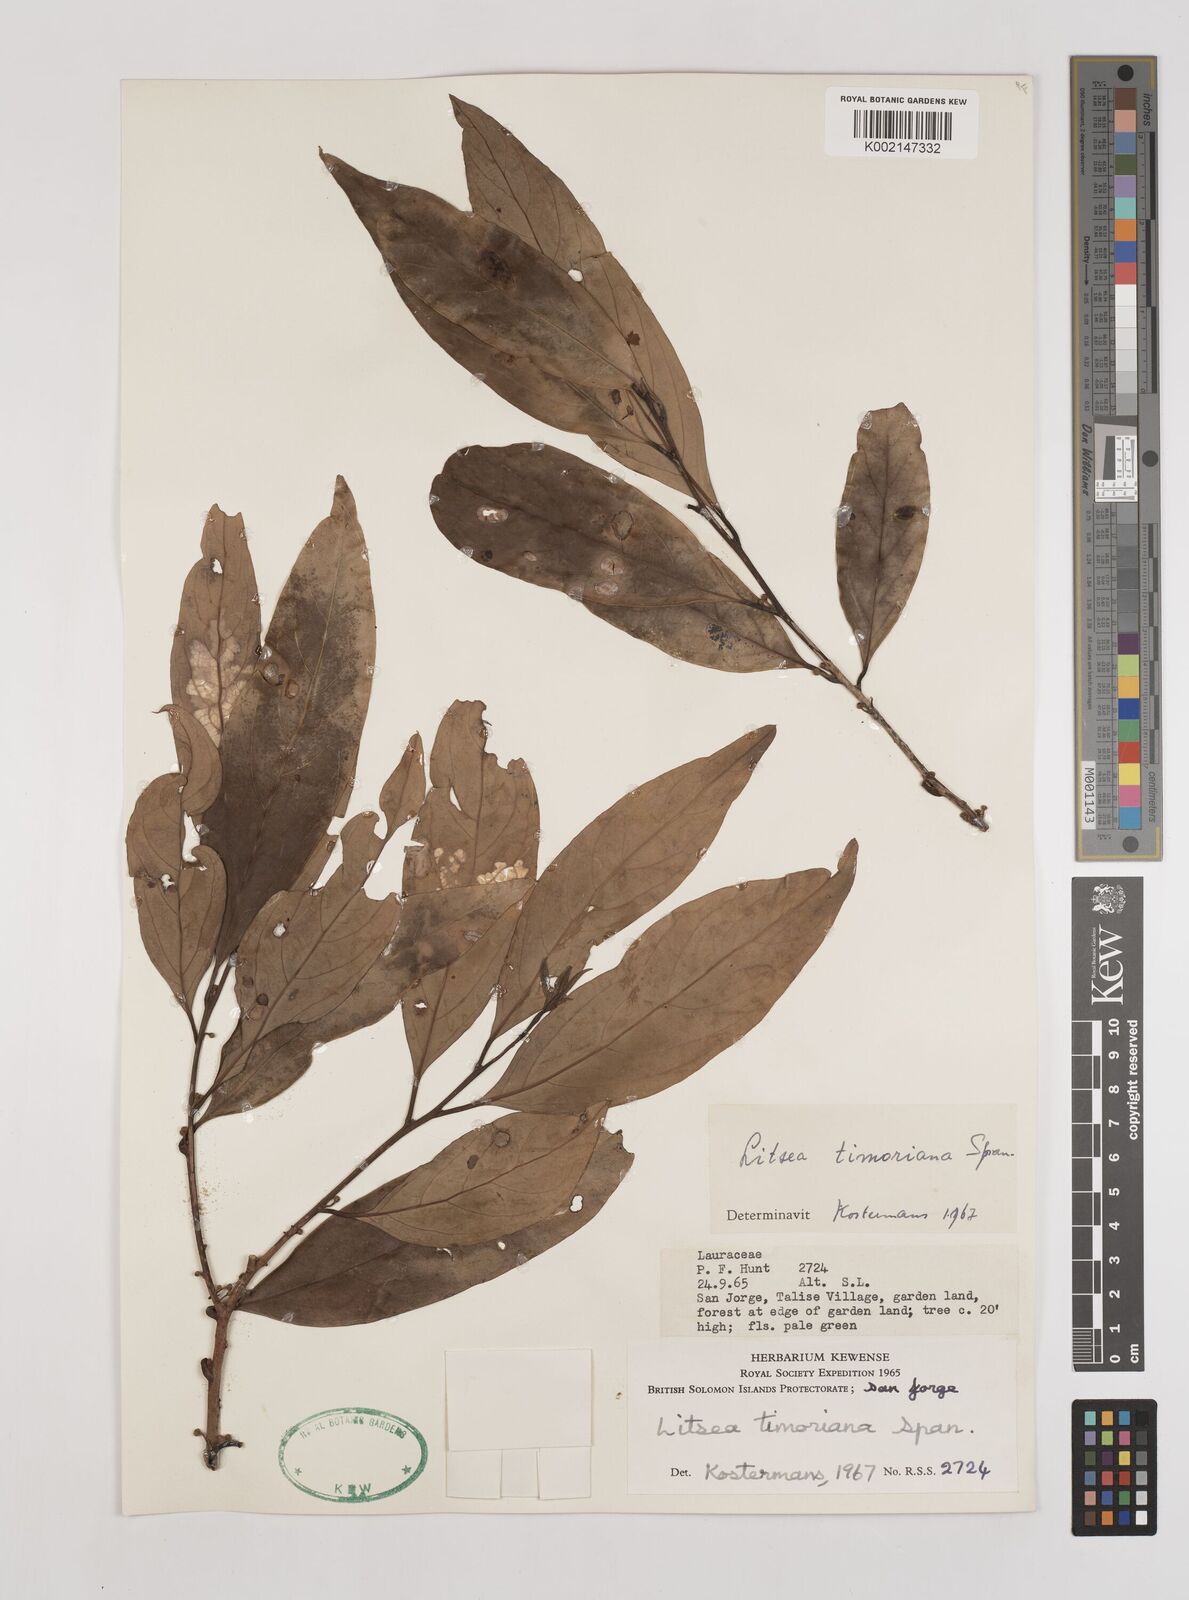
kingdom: Plantae
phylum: Tracheophyta
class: Magnoliopsida
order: Laurales
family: Lauraceae
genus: Litsea
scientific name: Litsea timoriana
